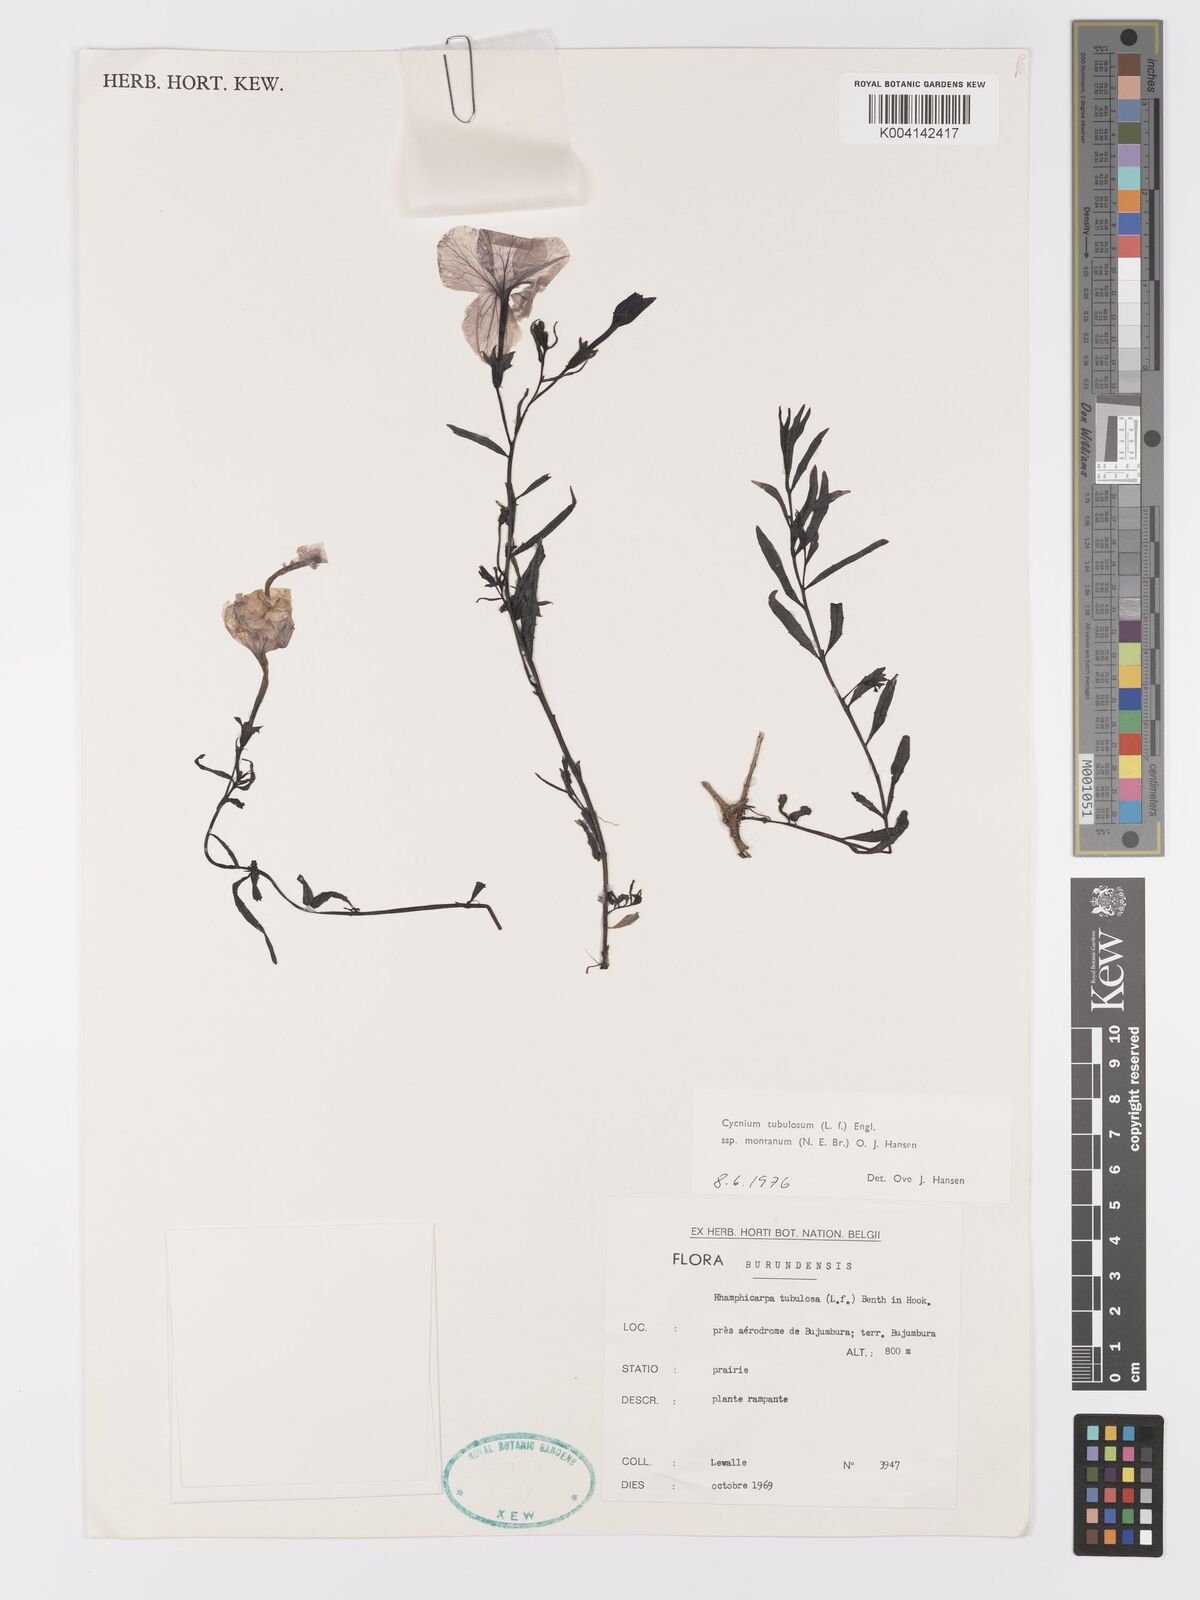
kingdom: Plantae
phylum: Tracheophyta
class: Magnoliopsida
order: Lamiales
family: Orobanchaceae
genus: Cycnium
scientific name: Cycnium tubulosum
